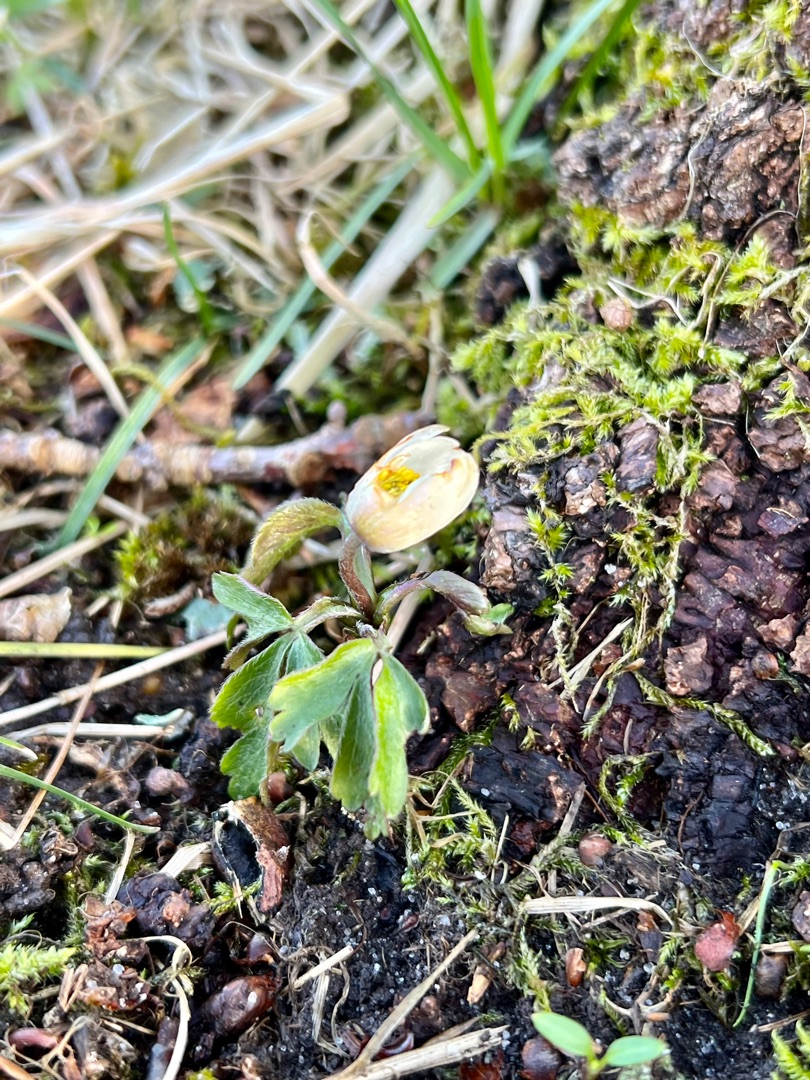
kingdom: Plantae
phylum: Tracheophyta
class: Magnoliopsida
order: Ranunculales
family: Ranunculaceae
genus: Anemone
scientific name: Anemone nemorosa
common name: Hvid anemone
